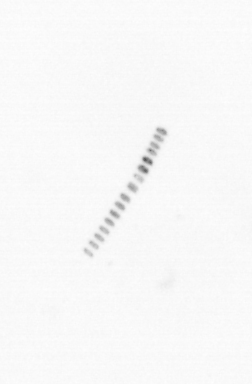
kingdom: Chromista
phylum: Ochrophyta
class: Bacillariophyceae
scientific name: Bacillariophyceae
